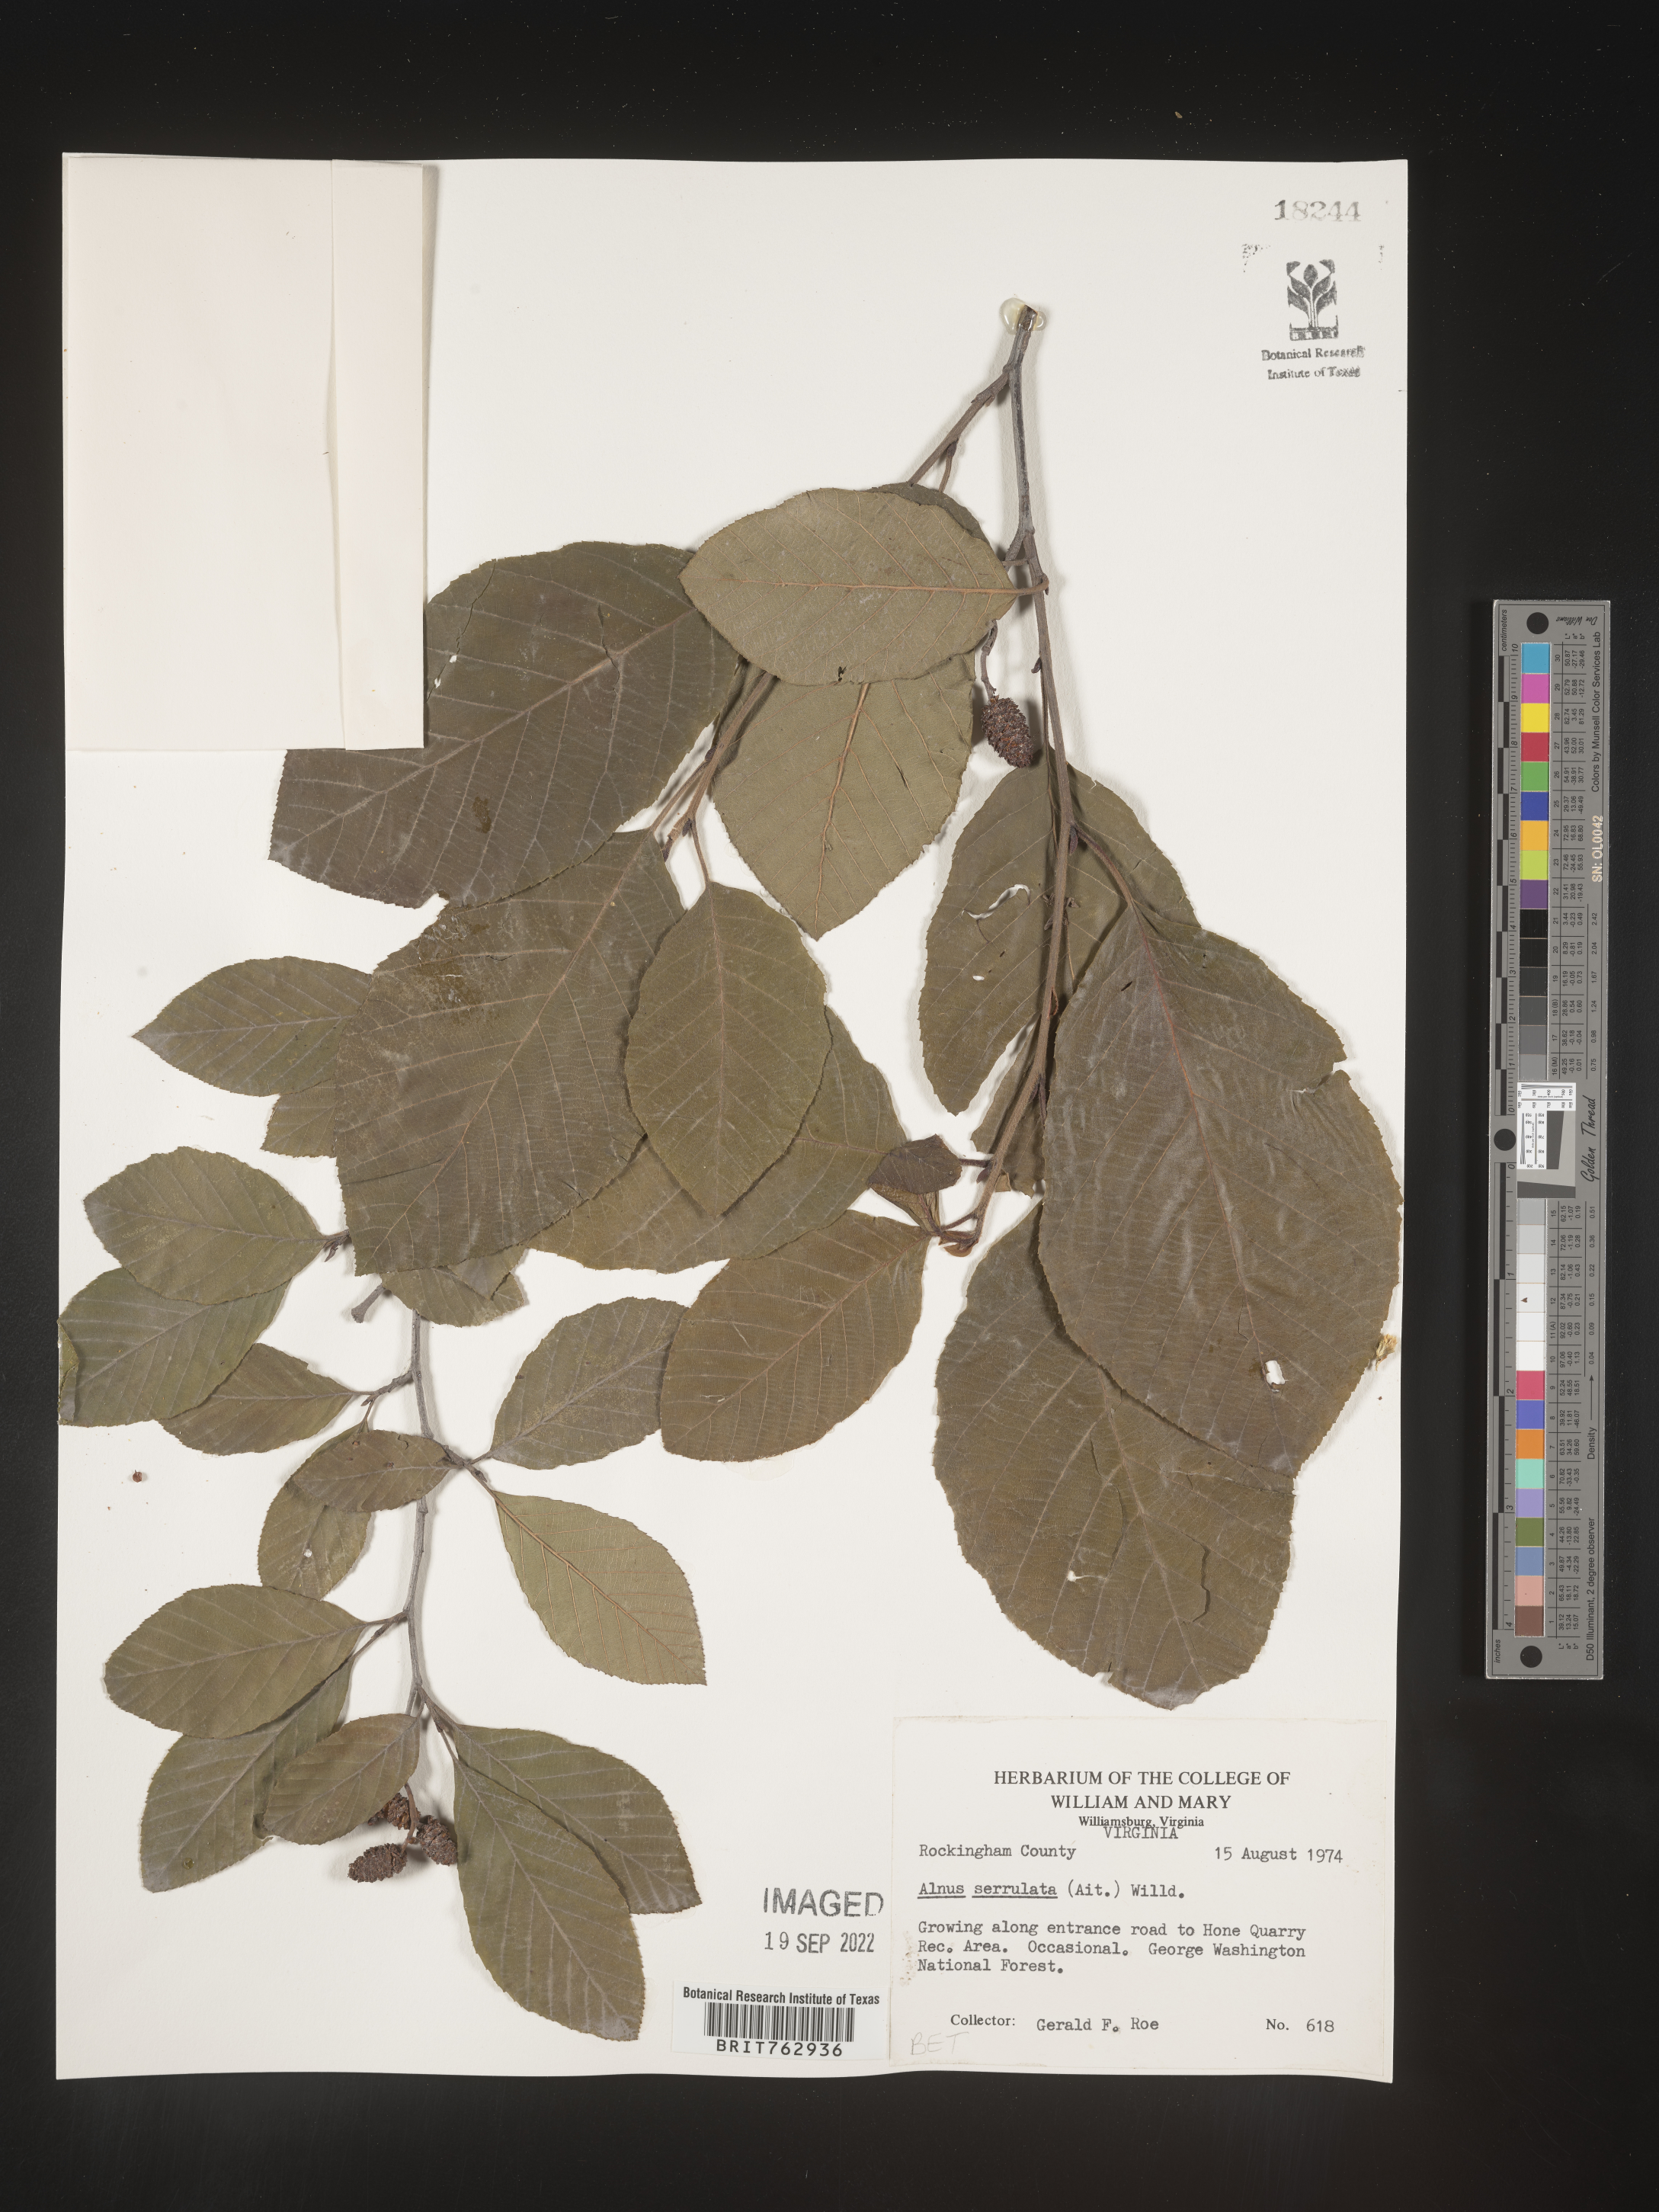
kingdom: Plantae
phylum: Tracheophyta
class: Magnoliopsida
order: Fagales
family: Betulaceae
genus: Alnus
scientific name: Alnus serrulata
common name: Hazel alder
